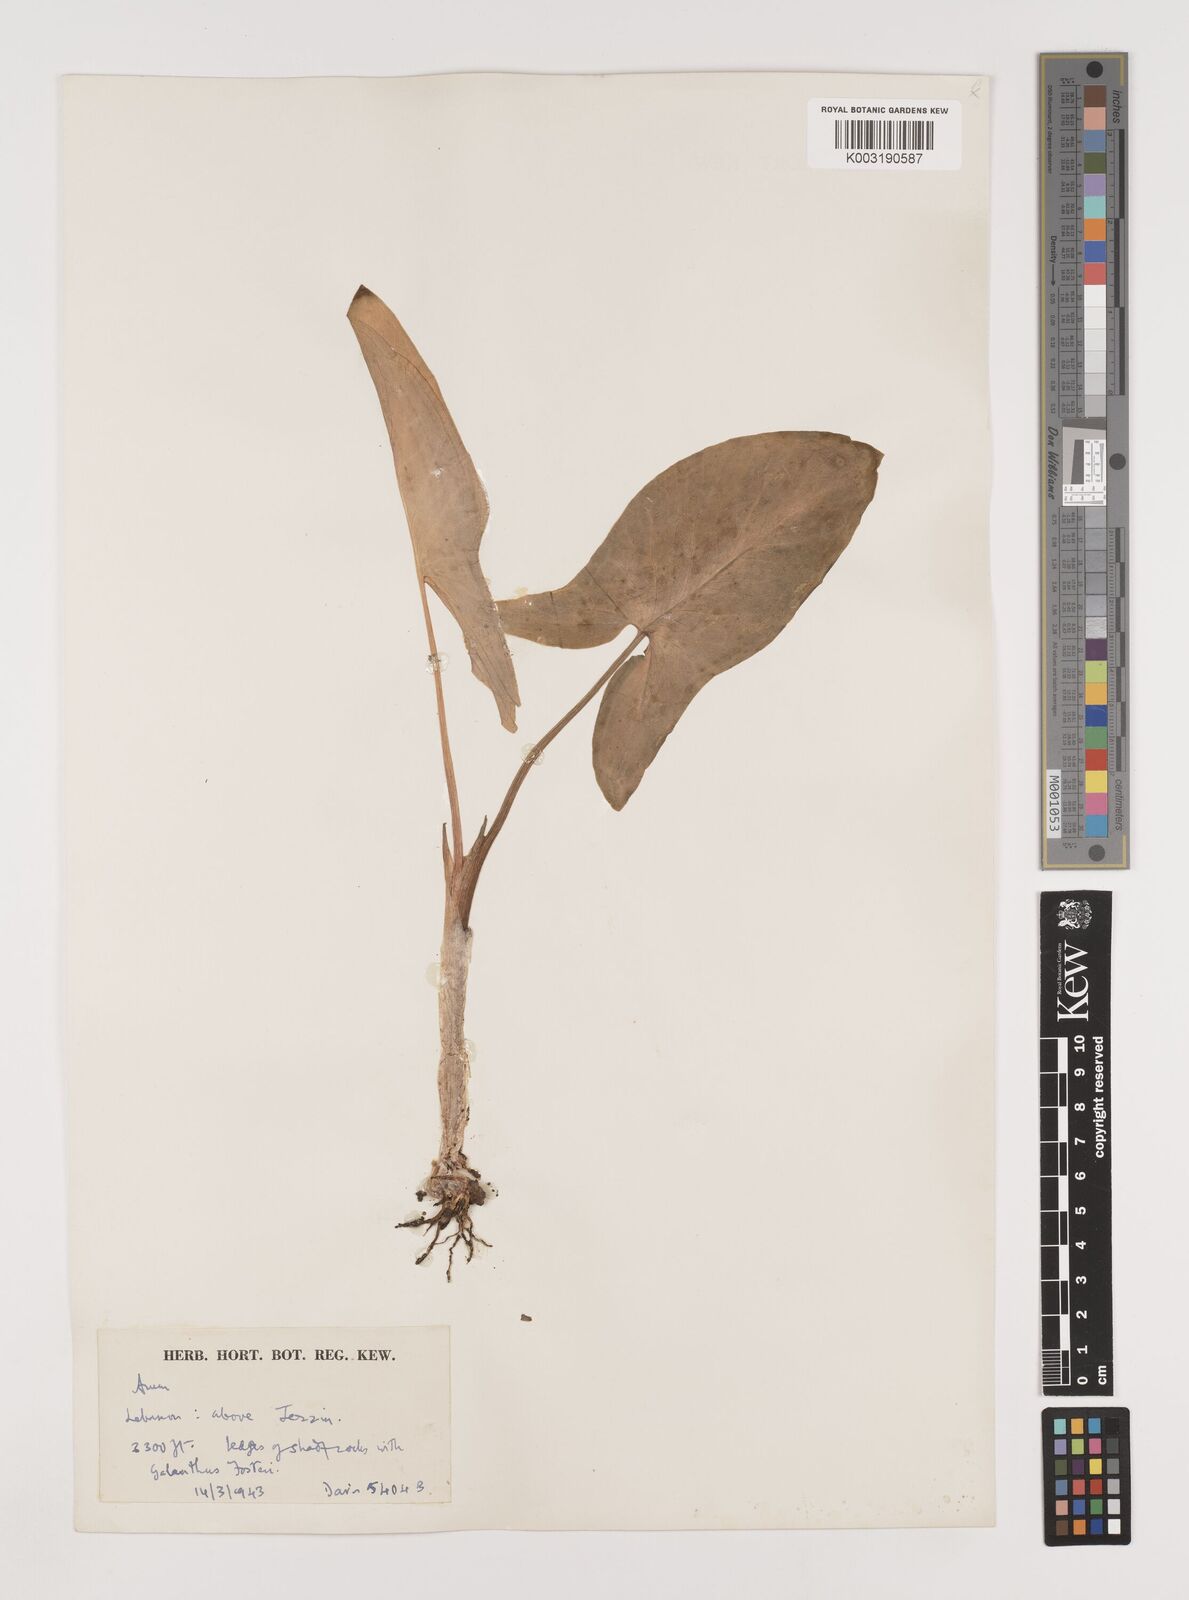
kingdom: Plantae
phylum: Tracheophyta
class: Liliopsida
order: Alismatales
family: Araceae
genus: Arum
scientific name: Arum
